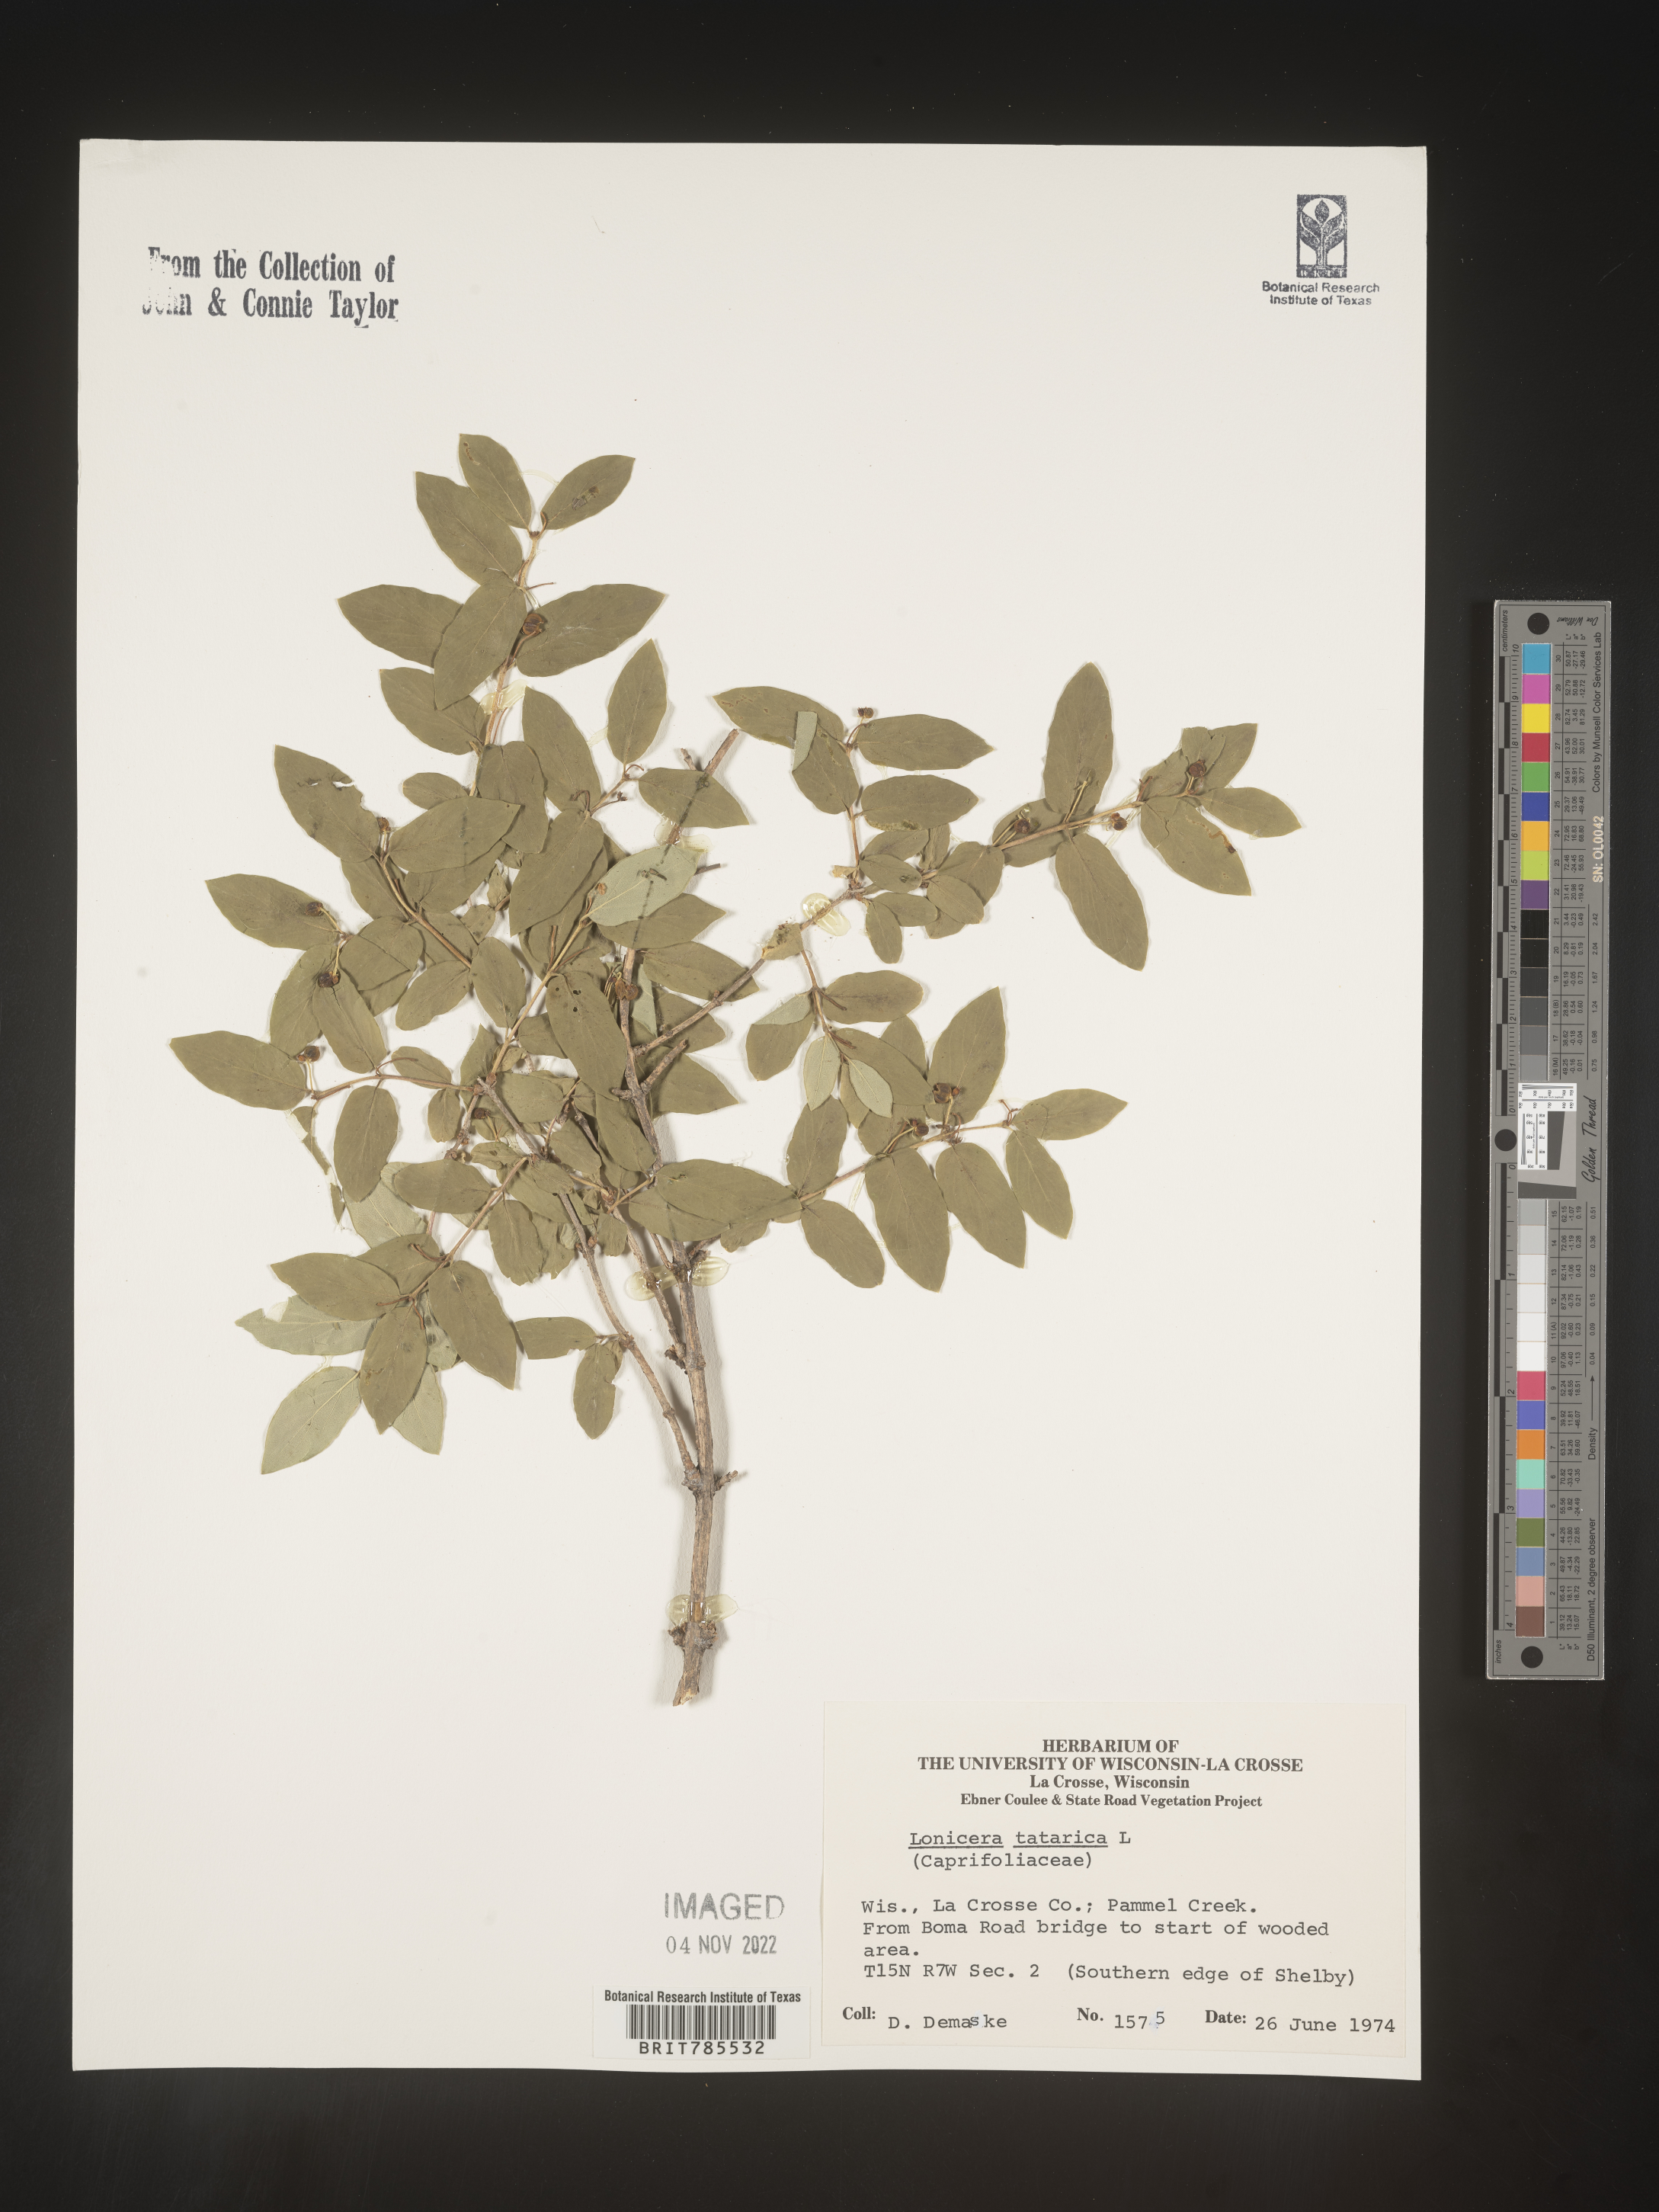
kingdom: Plantae
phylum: Tracheophyta
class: Magnoliopsida
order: Dipsacales
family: Caprifoliaceae
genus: Lonicera
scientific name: Lonicera
